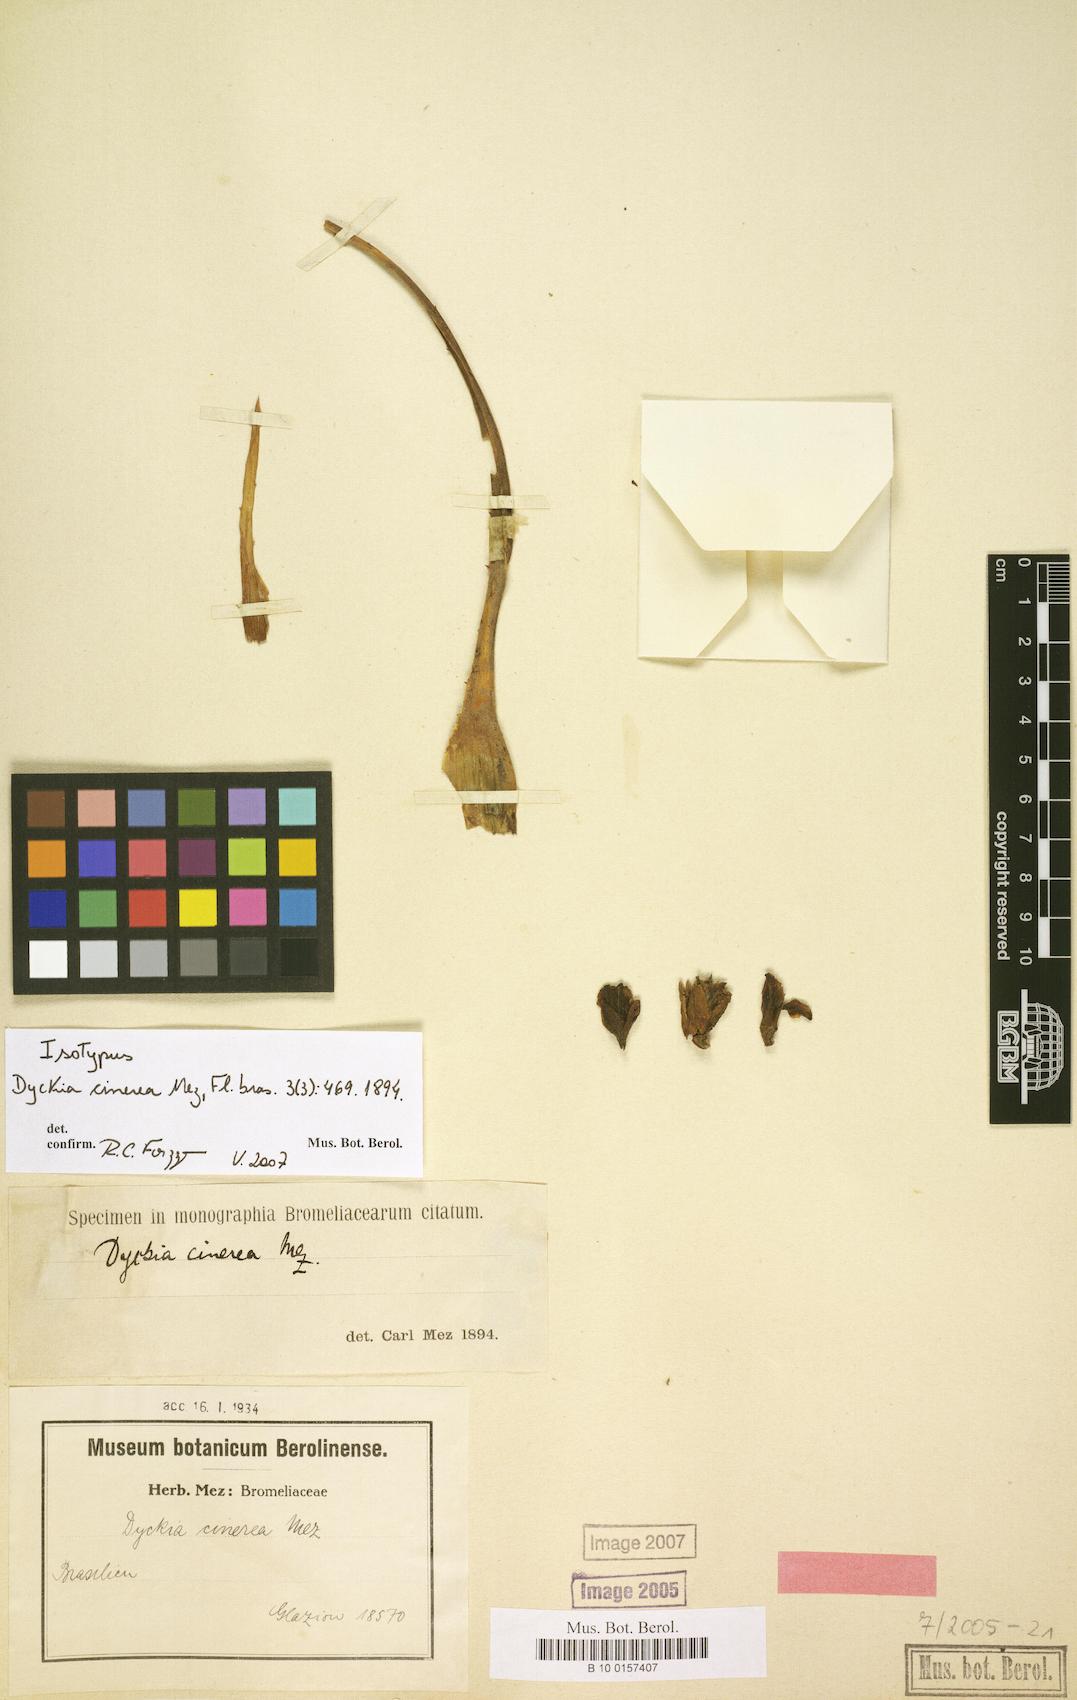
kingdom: Plantae
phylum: Tracheophyta
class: Liliopsida
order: Poales
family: Bromeliaceae
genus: Dyckia
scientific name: Dyckia cinerea
